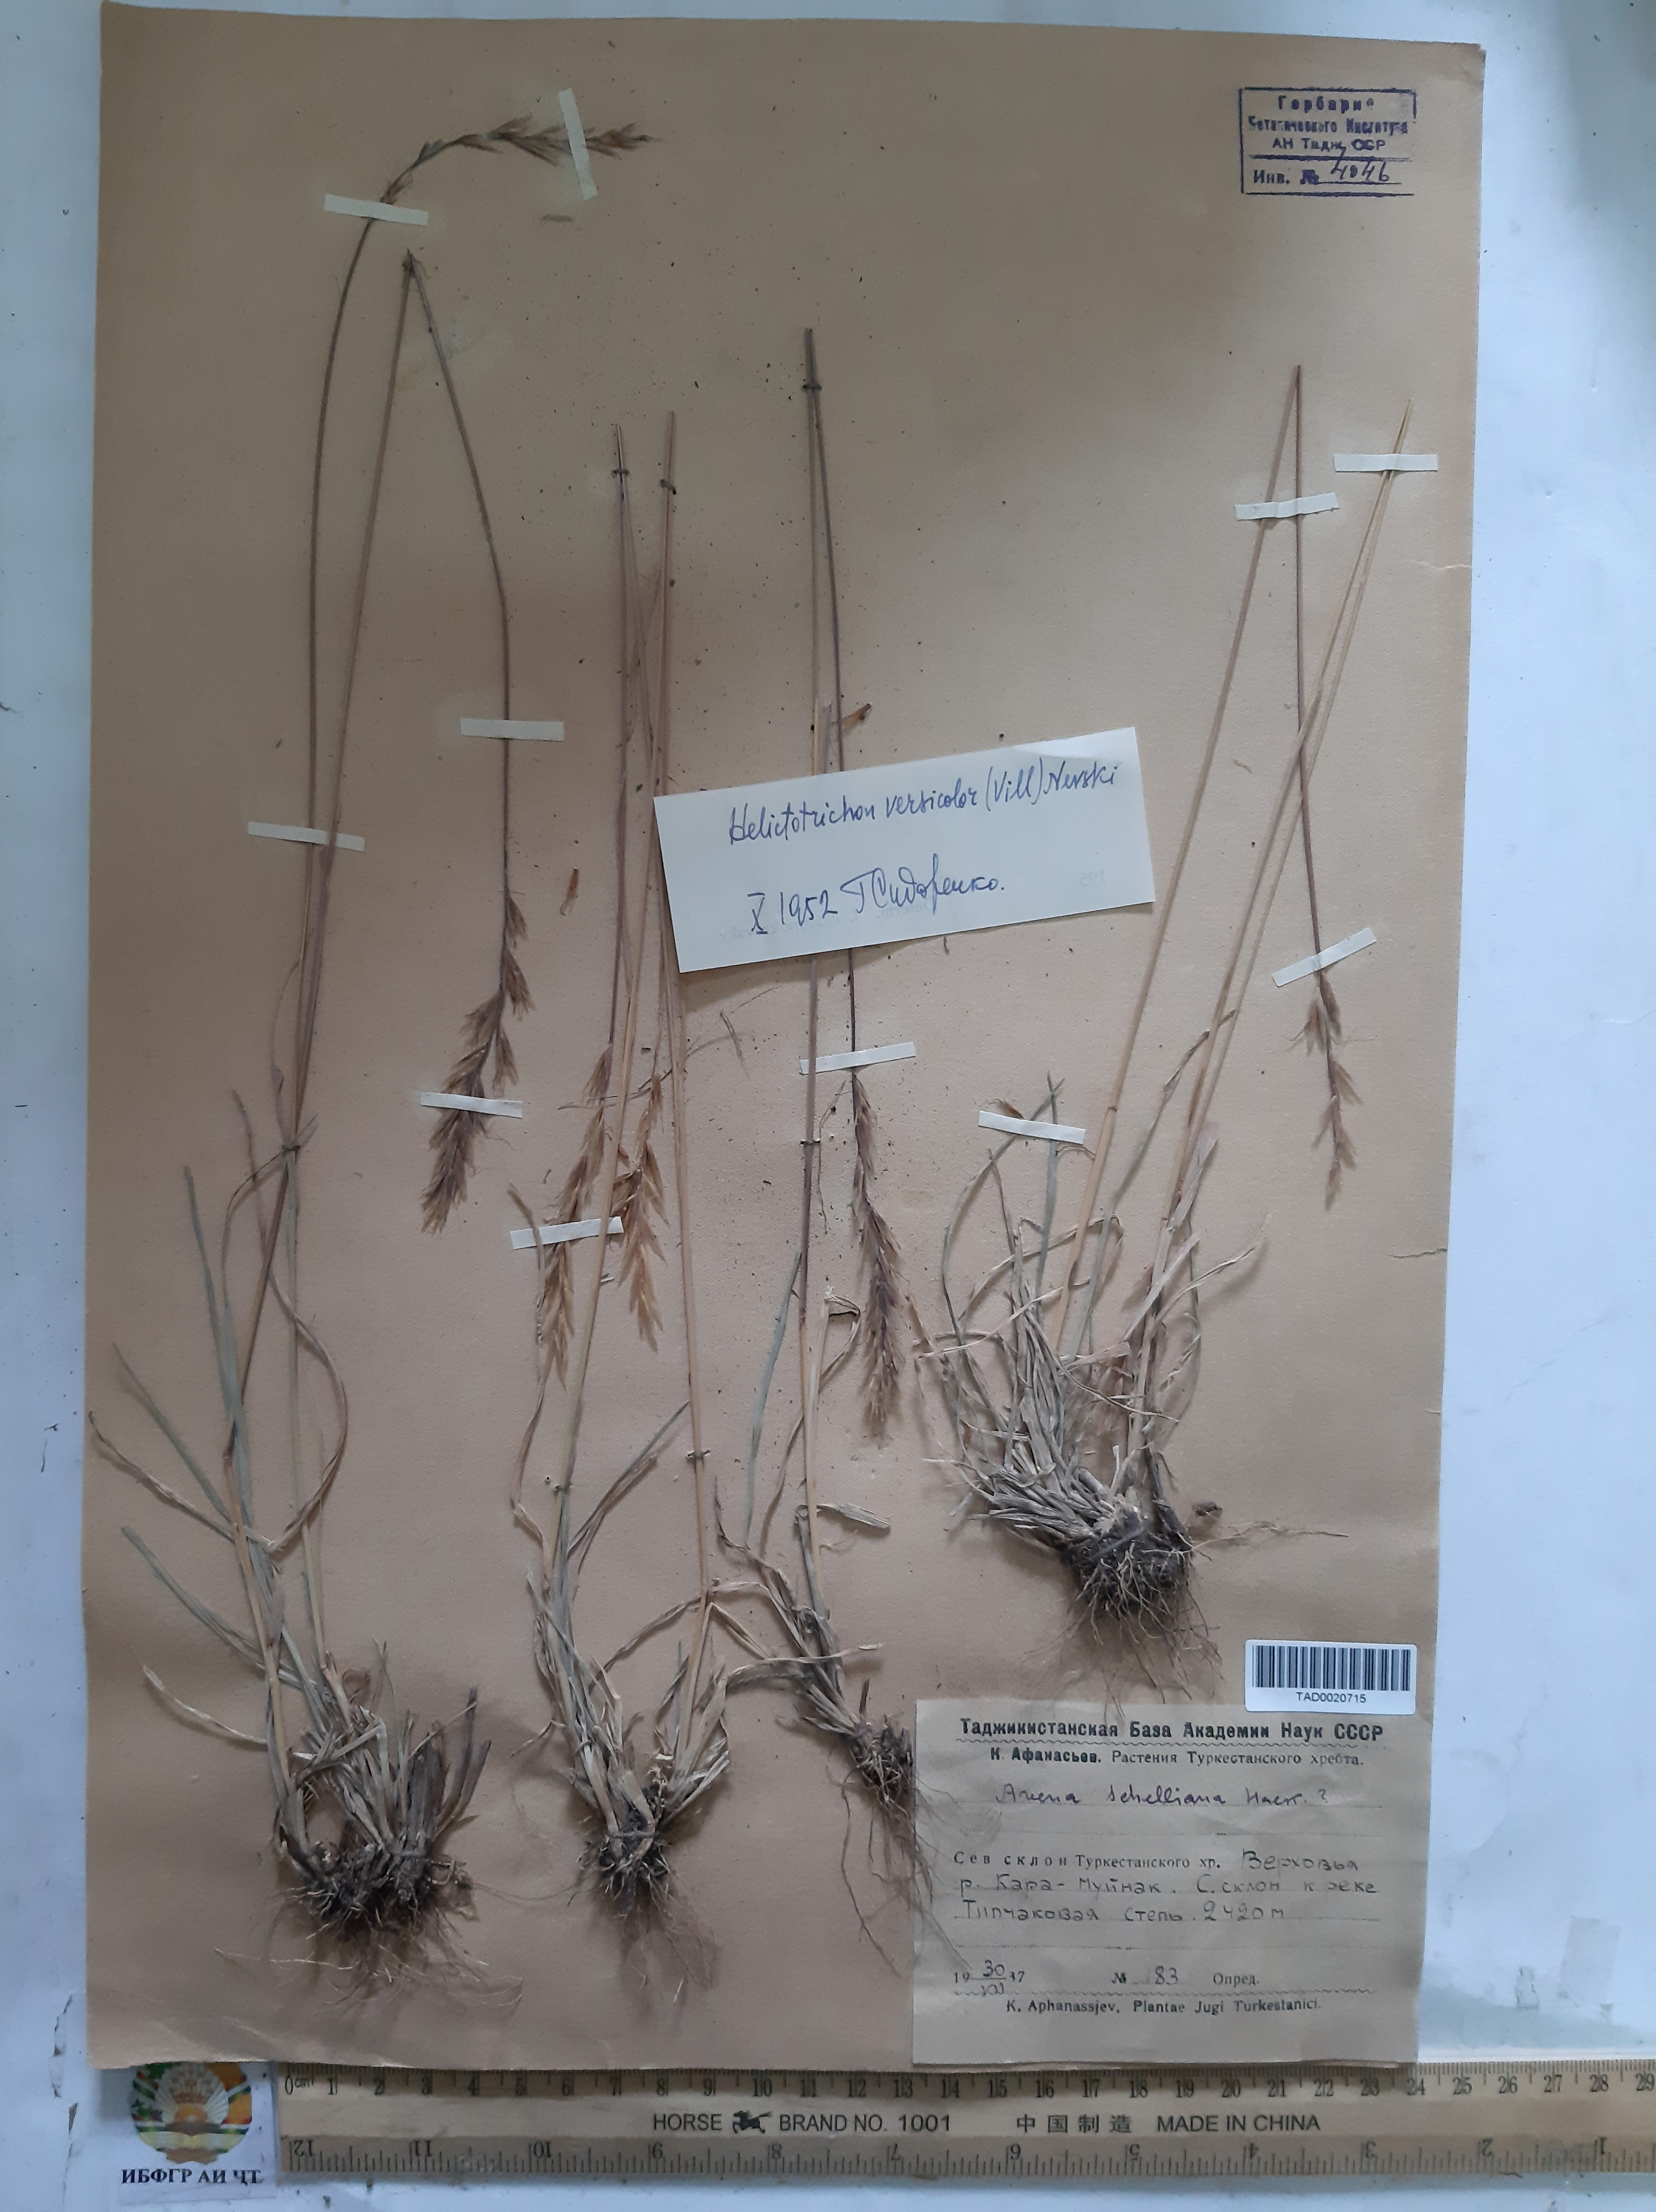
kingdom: Plantae
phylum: Tracheophyta
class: Liliopsida
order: Poales
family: Poaceae
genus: Helictochloa
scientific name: Helictochloa hookeri
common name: Hooker's alpine oatgrass
